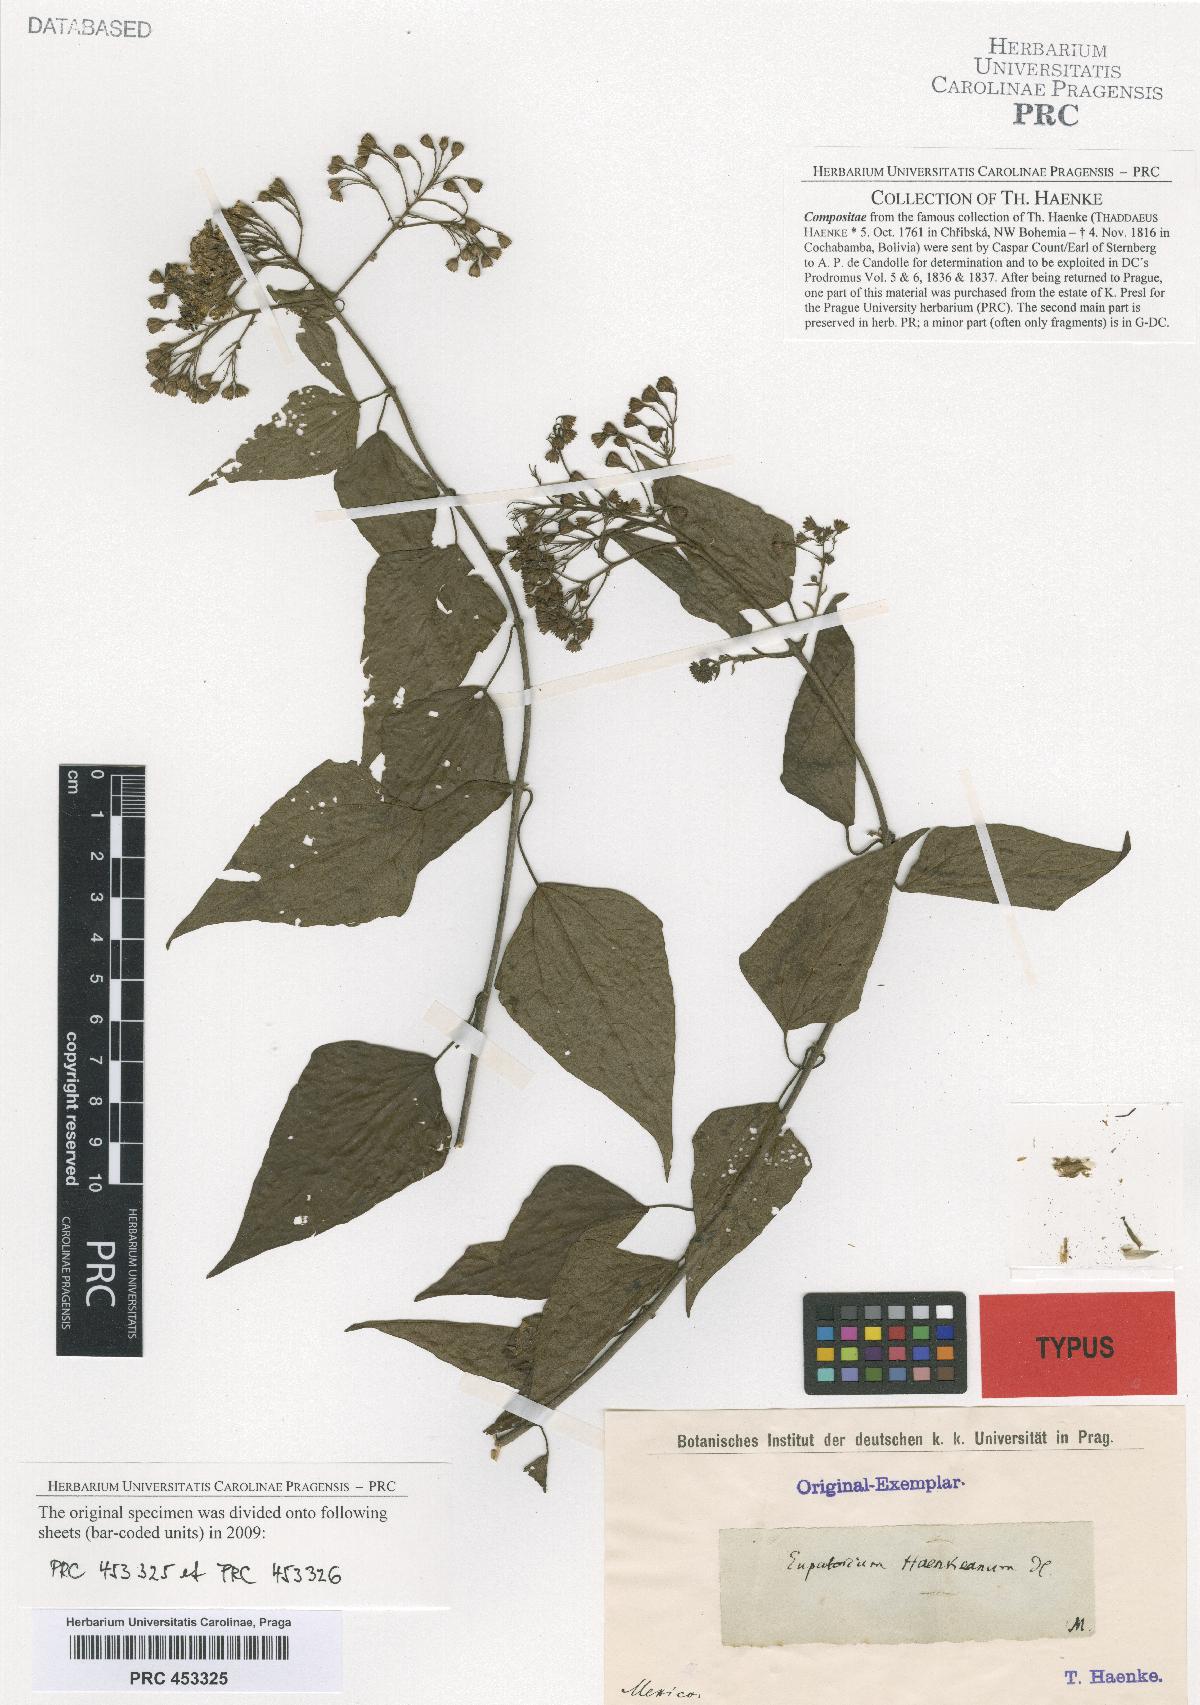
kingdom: Plantae
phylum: Tracheophyta
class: Magnoliopsida
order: Asterales
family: Asteraceae
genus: Chromolaena
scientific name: Chromolaena haenkeana
